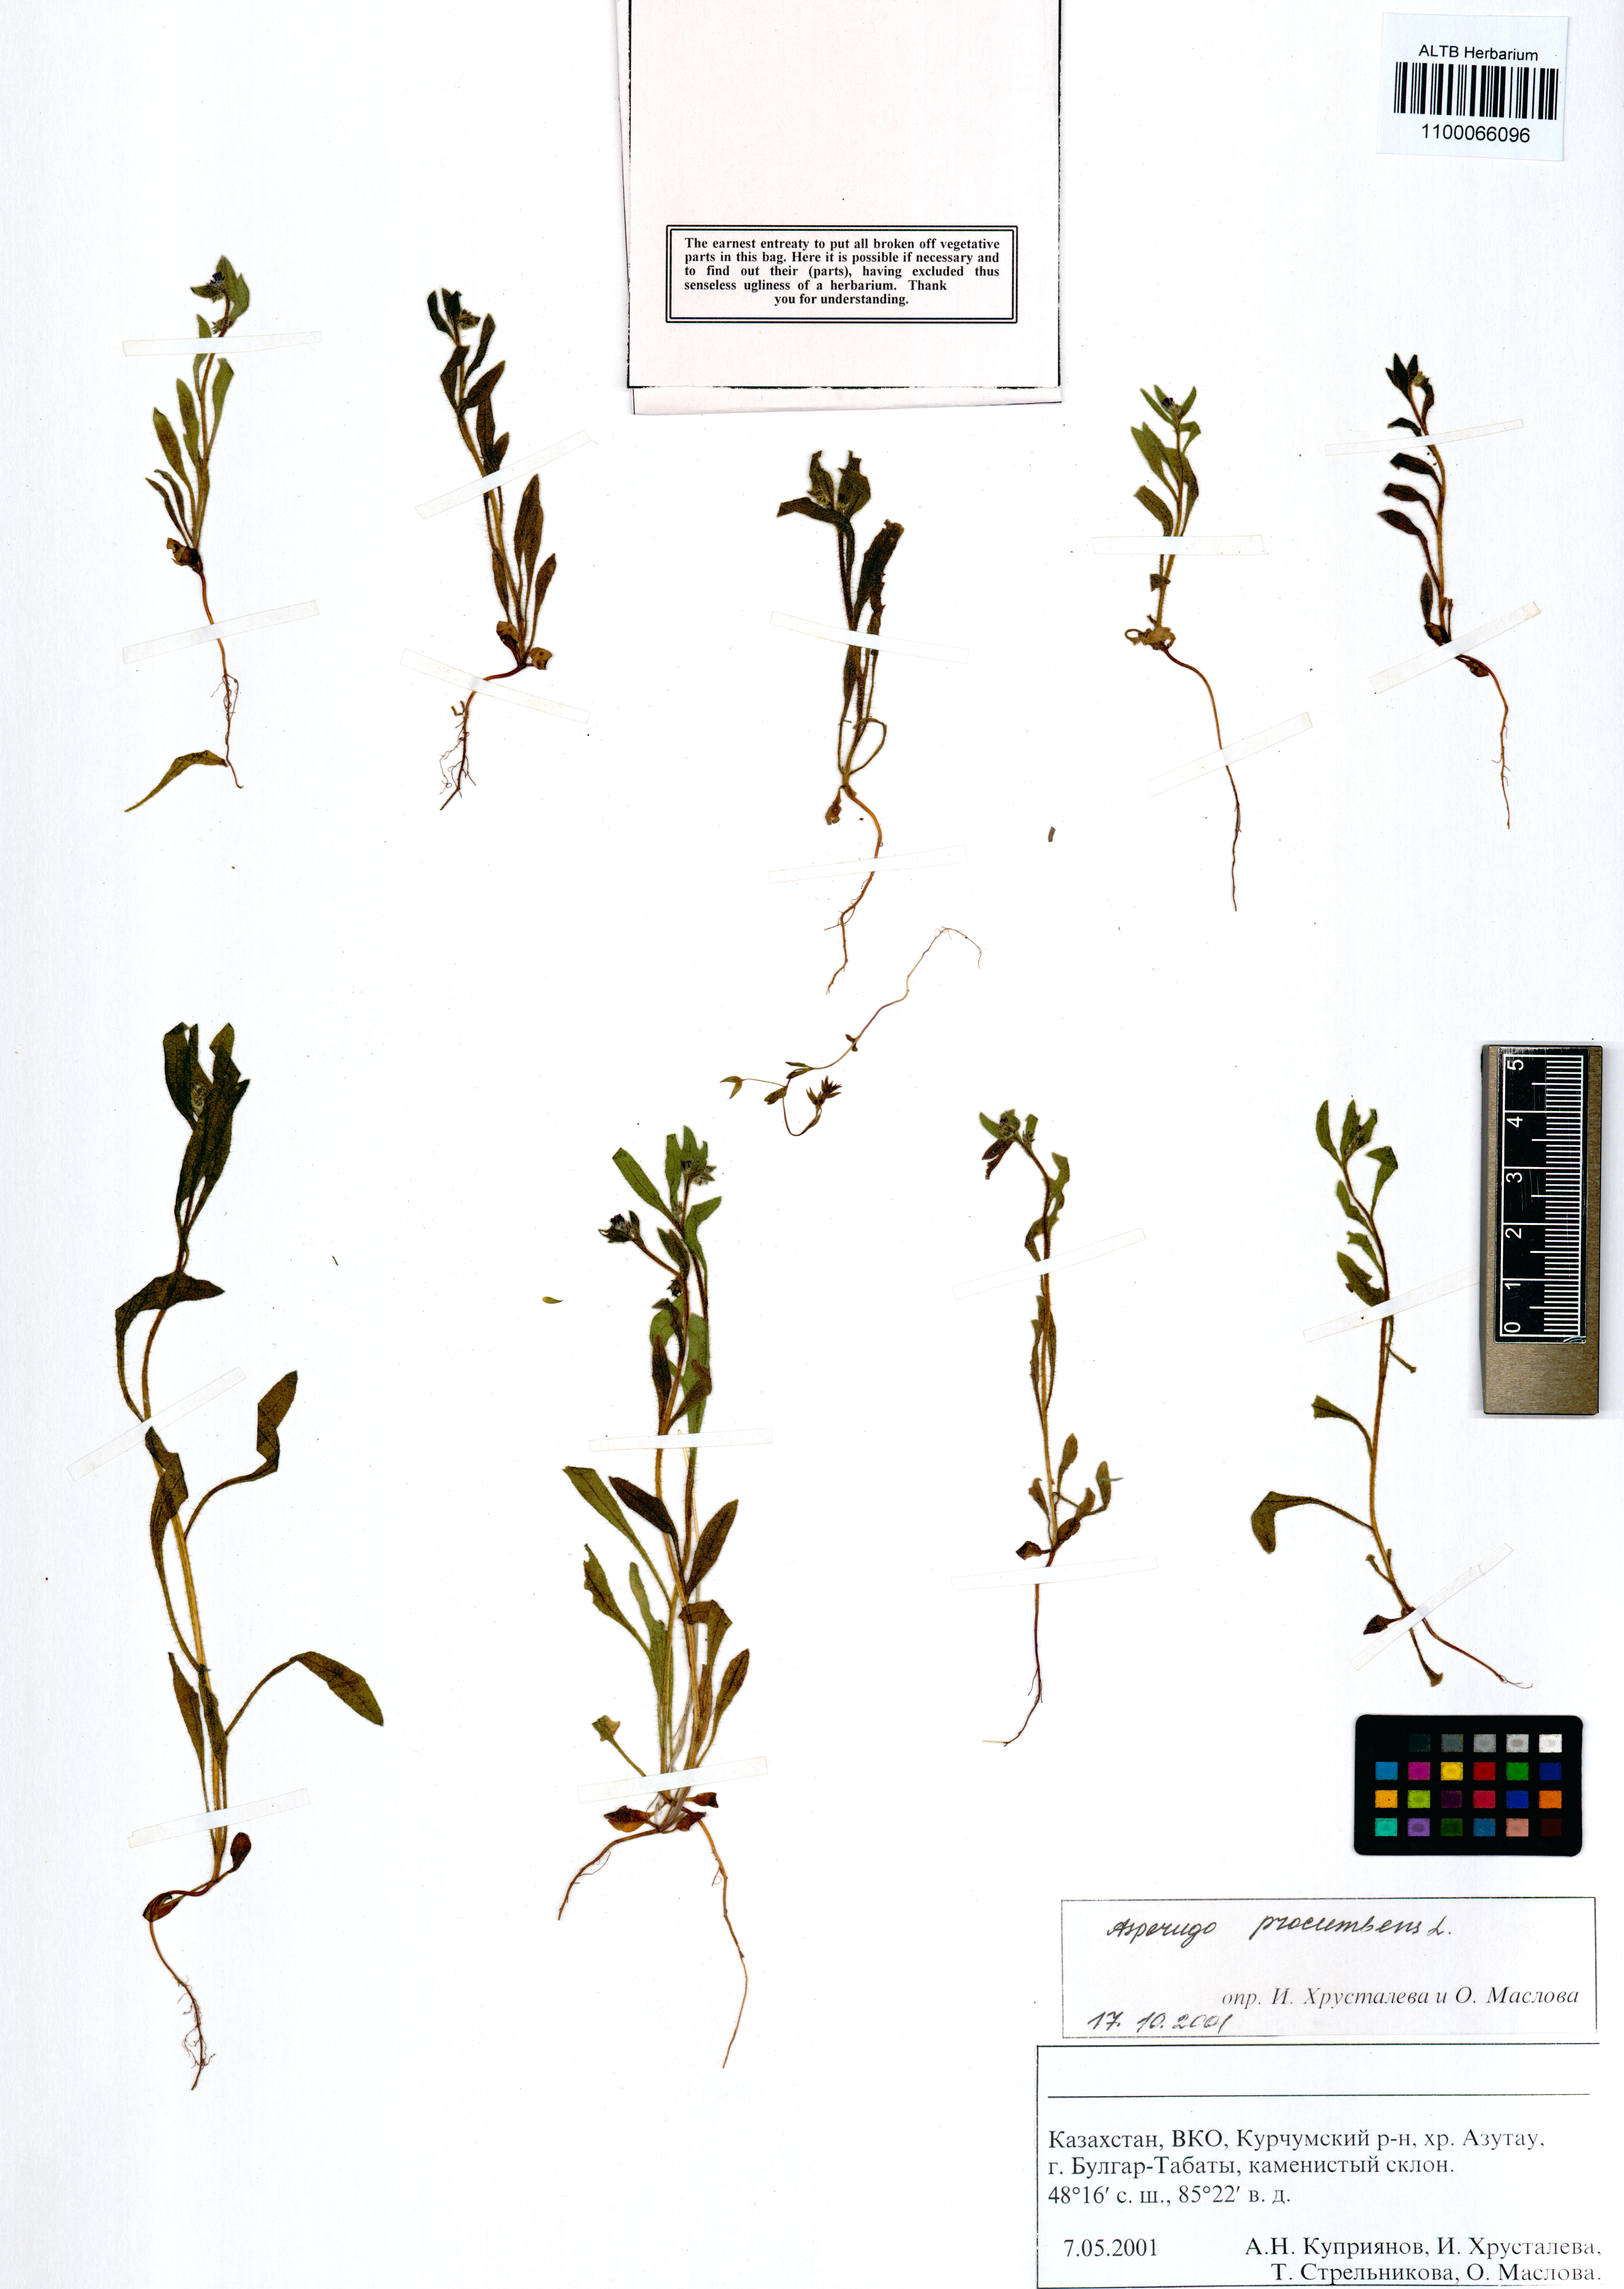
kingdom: Plantae
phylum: Tracheophyta
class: Magnoliopsida
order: Boraginales
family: Boraginaceae
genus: Asperugo
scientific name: Asperugo procumbens
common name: Madwort
